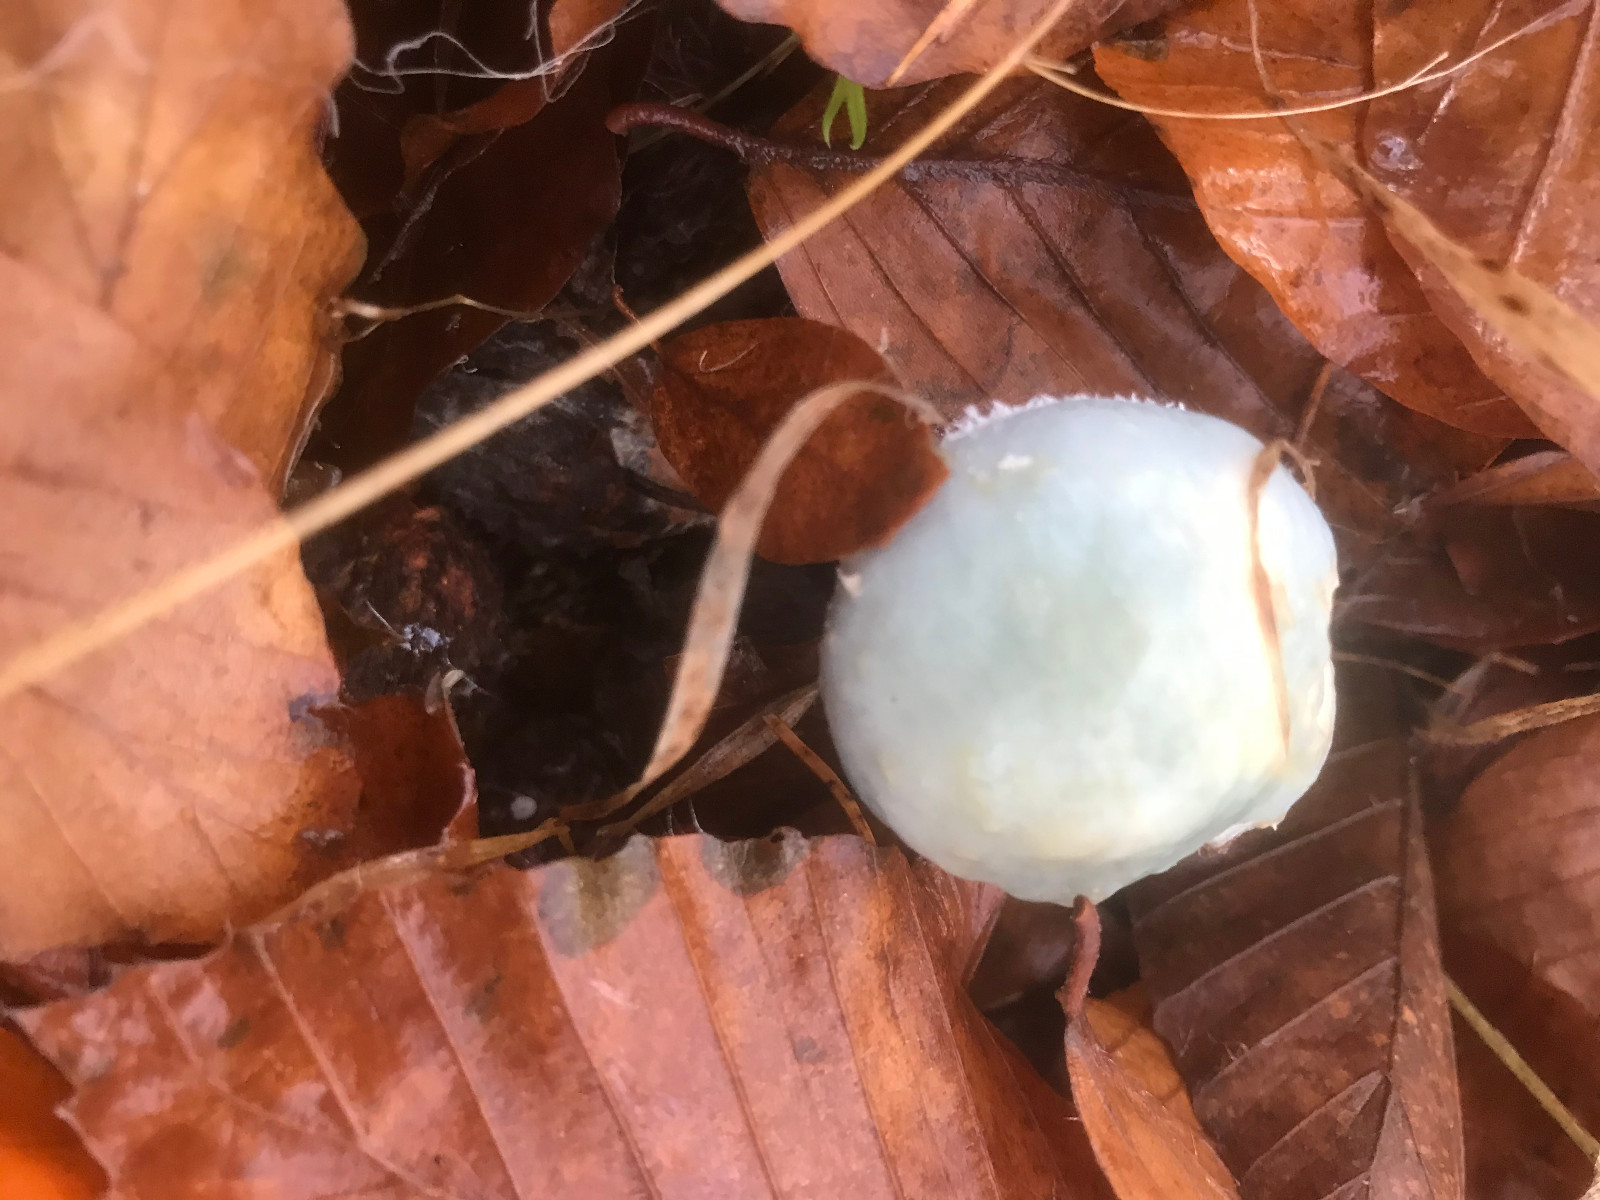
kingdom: Fungi
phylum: Basidiomycota
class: Agaricomycetes
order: Agaricales
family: Strophariaceae
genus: Stropharia
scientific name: Stropharia
